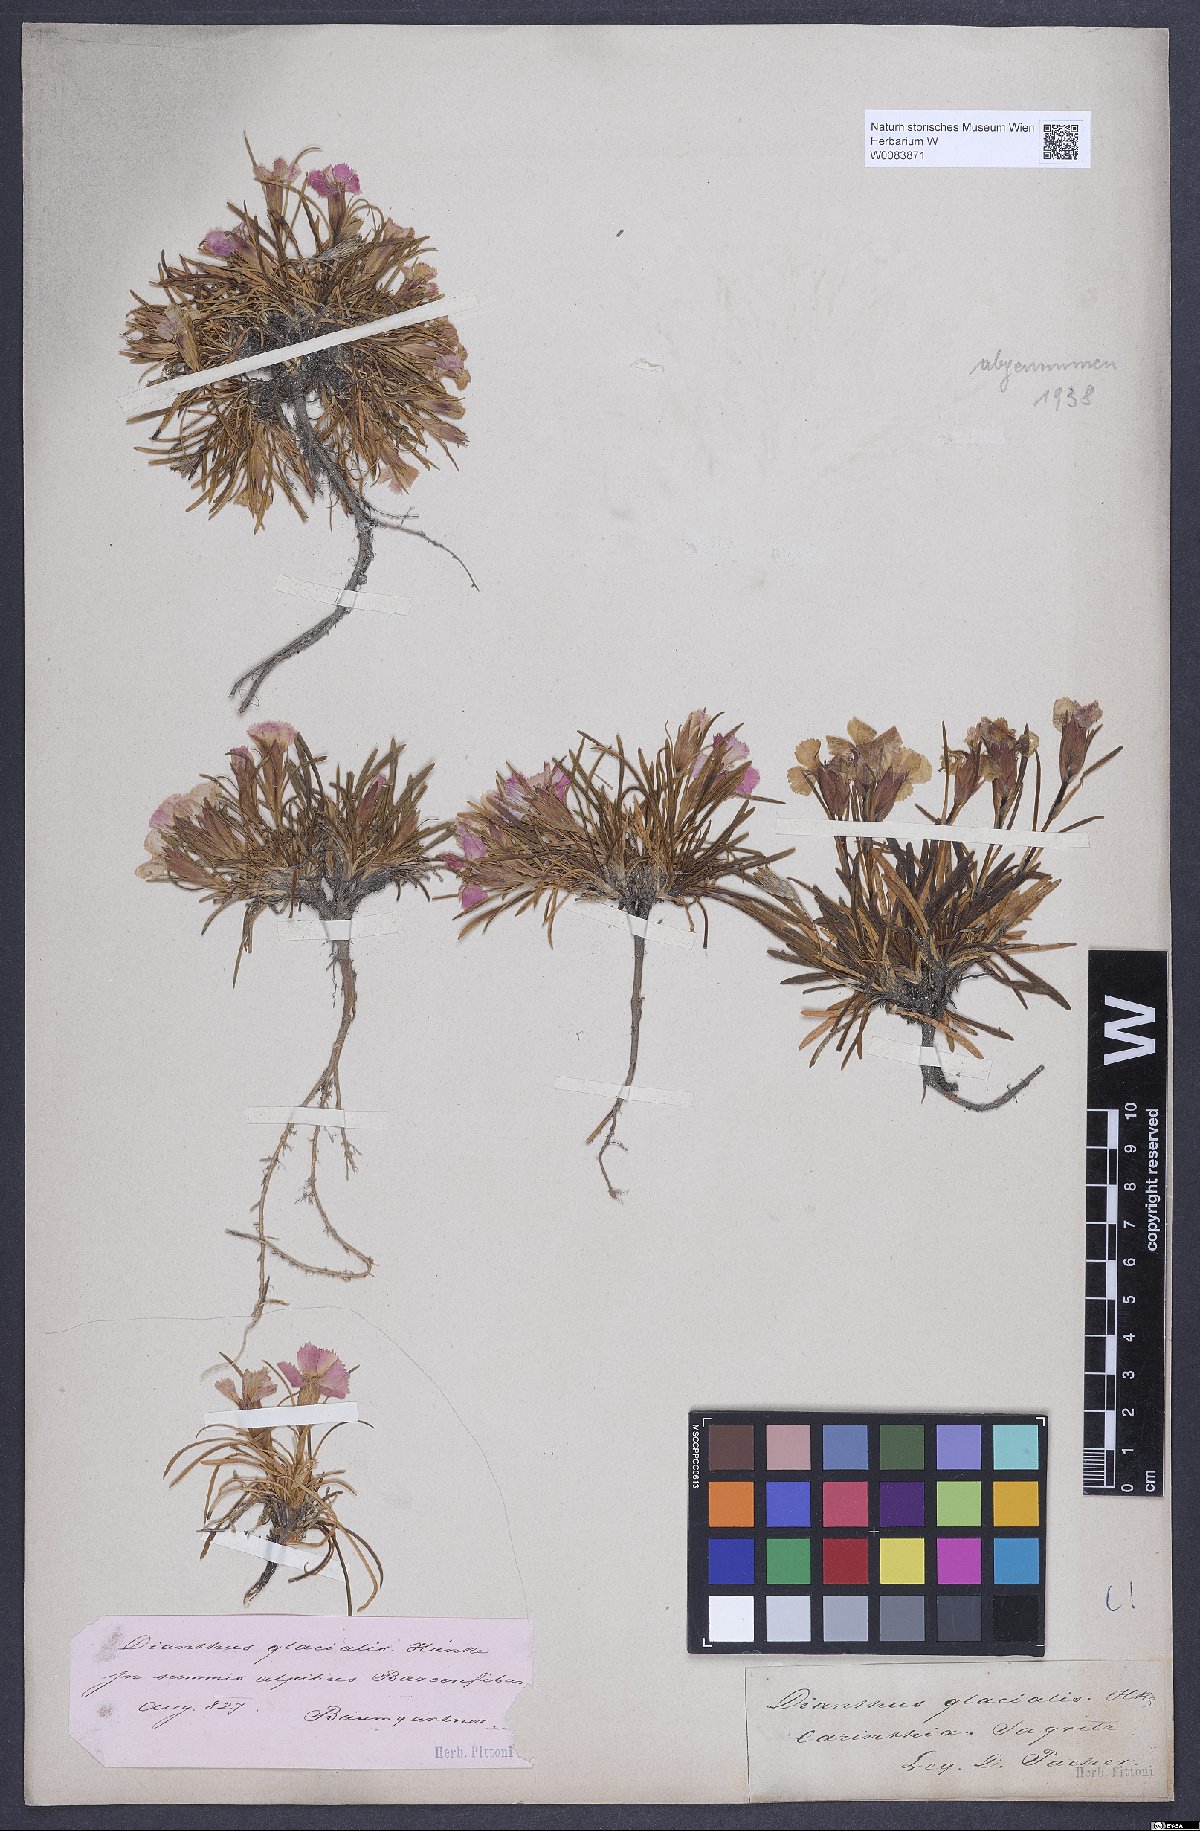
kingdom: Plantae
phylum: Tracheophyta
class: Magnoliopsida
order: Caryophyllales
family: Caryophyllaceae
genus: Dianthus
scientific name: Dianthus glacialis
